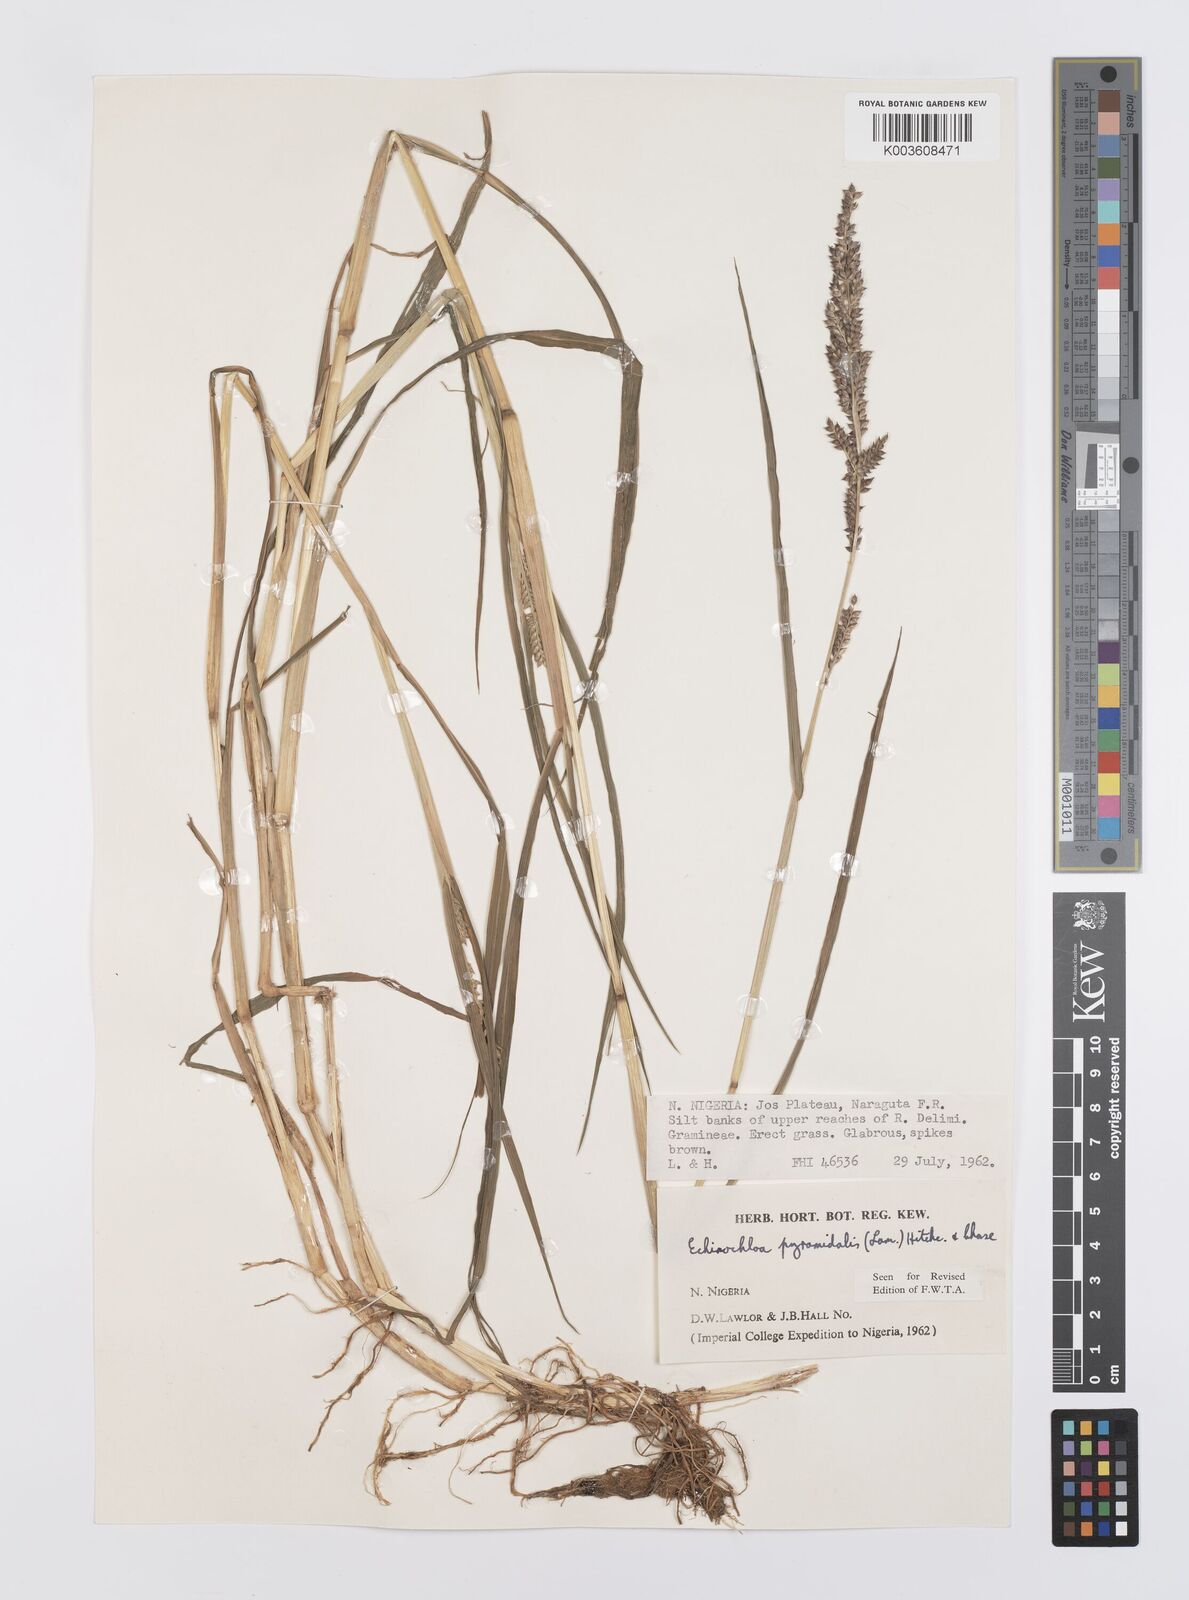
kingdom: Plantae
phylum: Tracheophyta
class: Liliopsida
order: Poales
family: Poaceae
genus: Echinochloa
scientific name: Echinochloa pyramidalis
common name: Antelope grass
